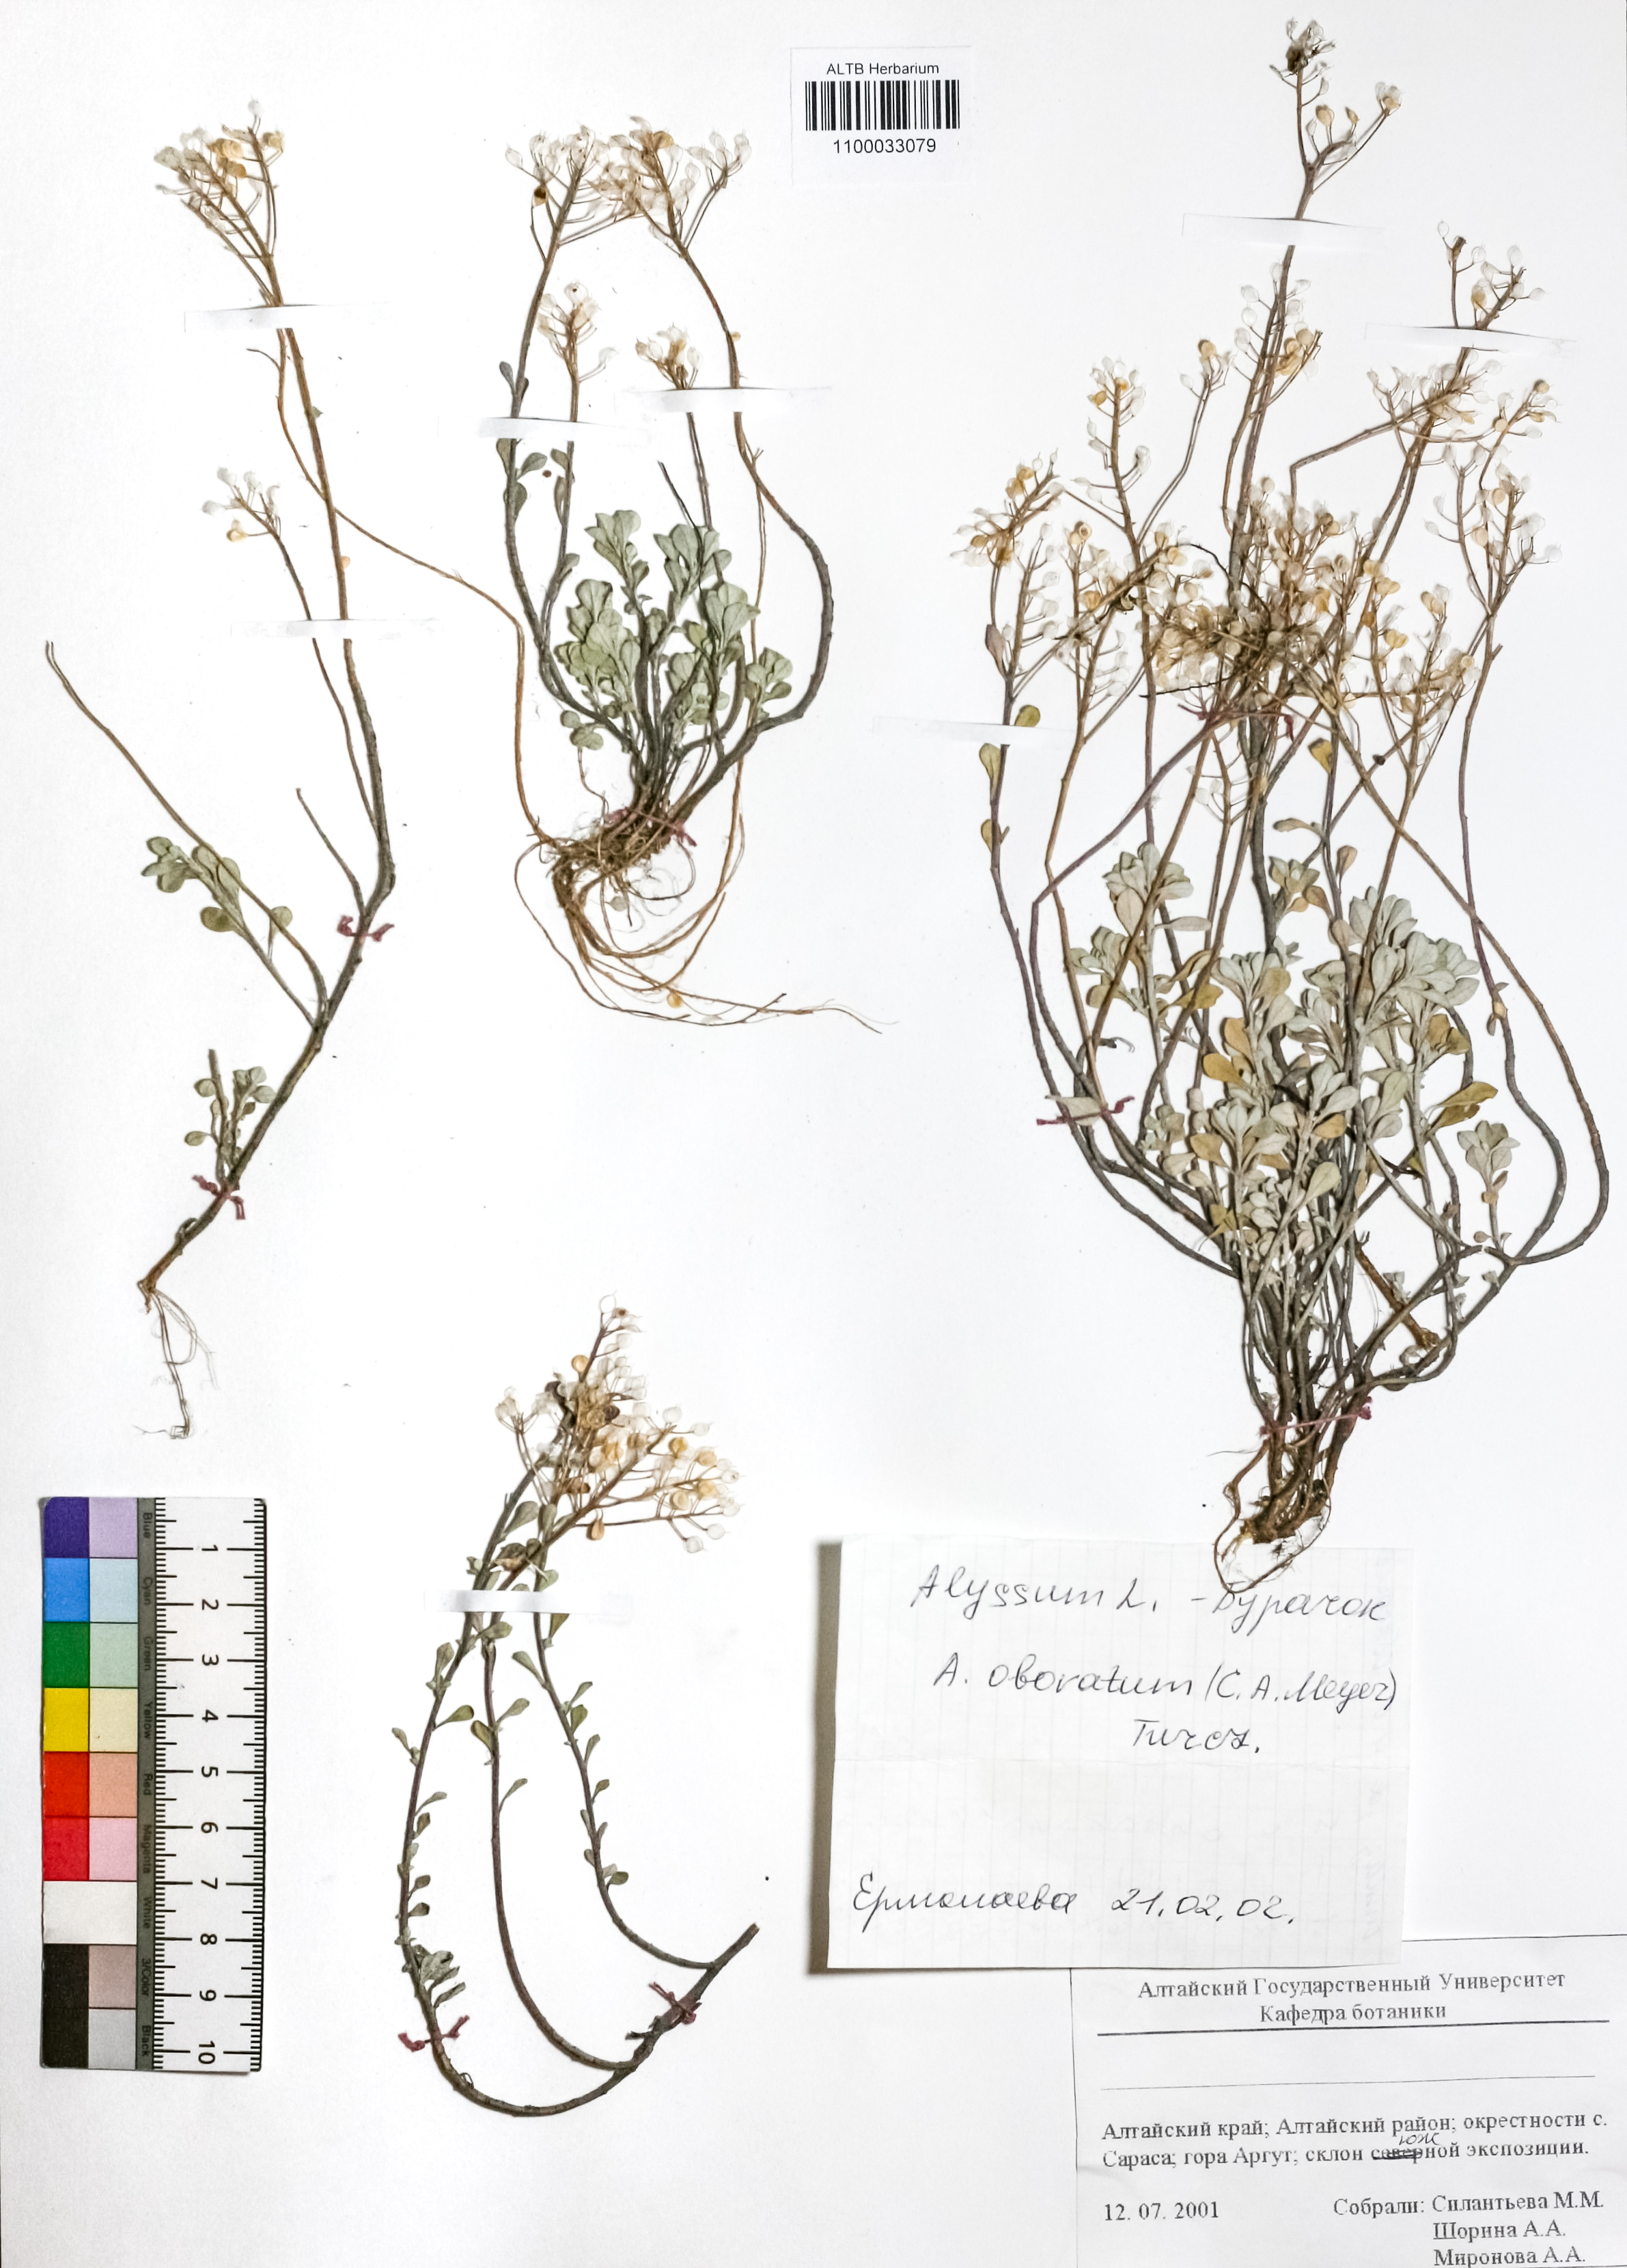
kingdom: Plantae
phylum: Tracheophyta
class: Magnoliopsida
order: Brassicales
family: Brassicaceae
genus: Odontarrhena
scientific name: Odontarrhena obovata
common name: American alyssum
